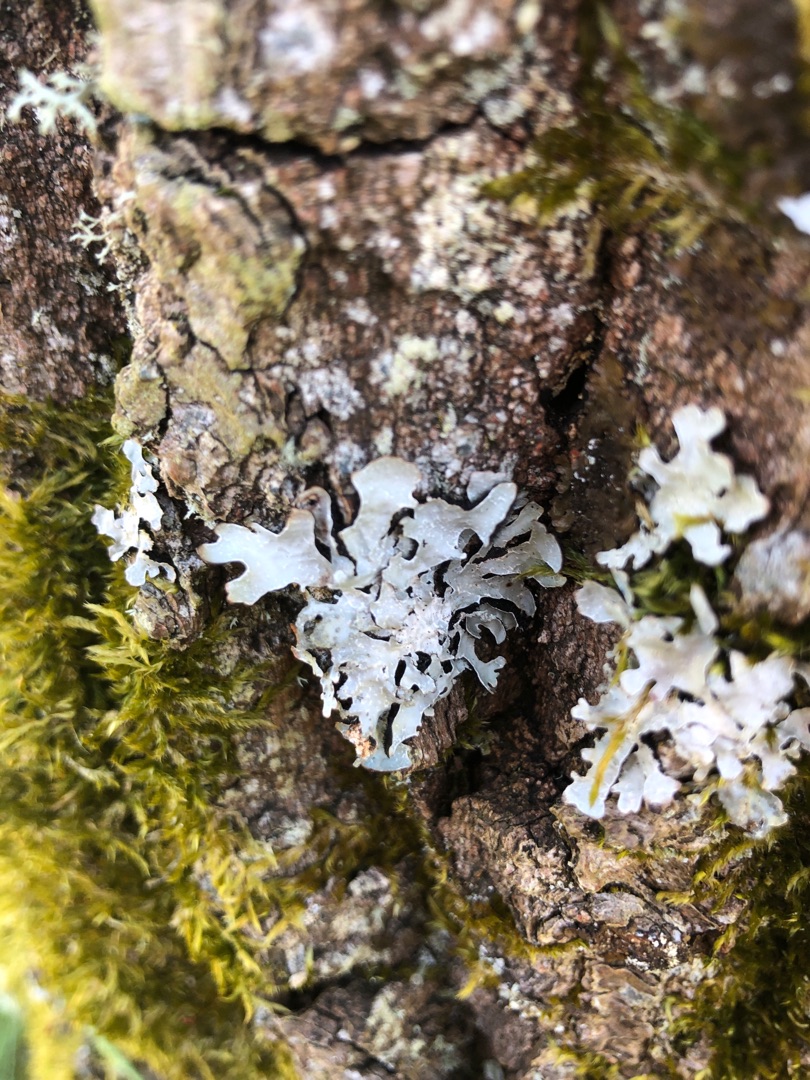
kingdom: Fungi
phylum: Ascomycota
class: Lecanoromycetes
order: Lecanorales
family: Parmeliaceae
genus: Parmelia
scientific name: Parmelia sulcata
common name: Rynket skållav
